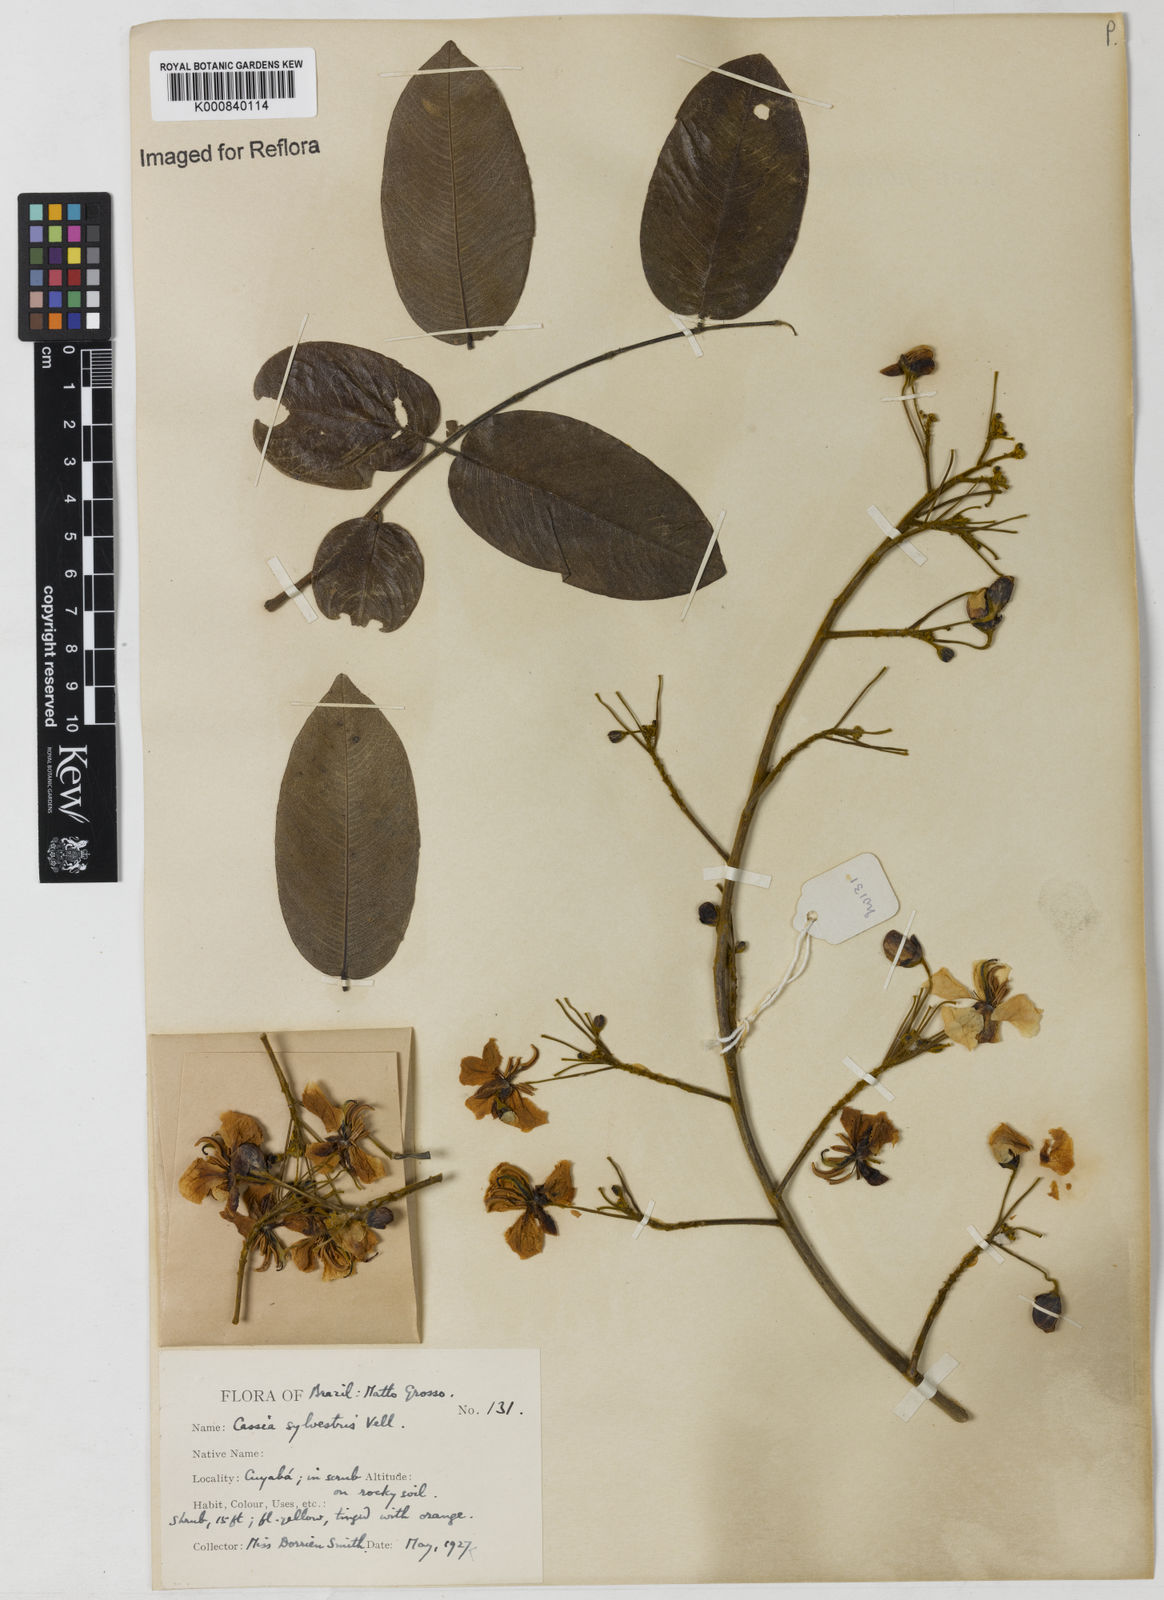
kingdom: Plantae
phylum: Tracheophyta
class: Magnoliopsida
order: Fabales
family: Fabaceae
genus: Senna
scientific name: Senna silvestris
